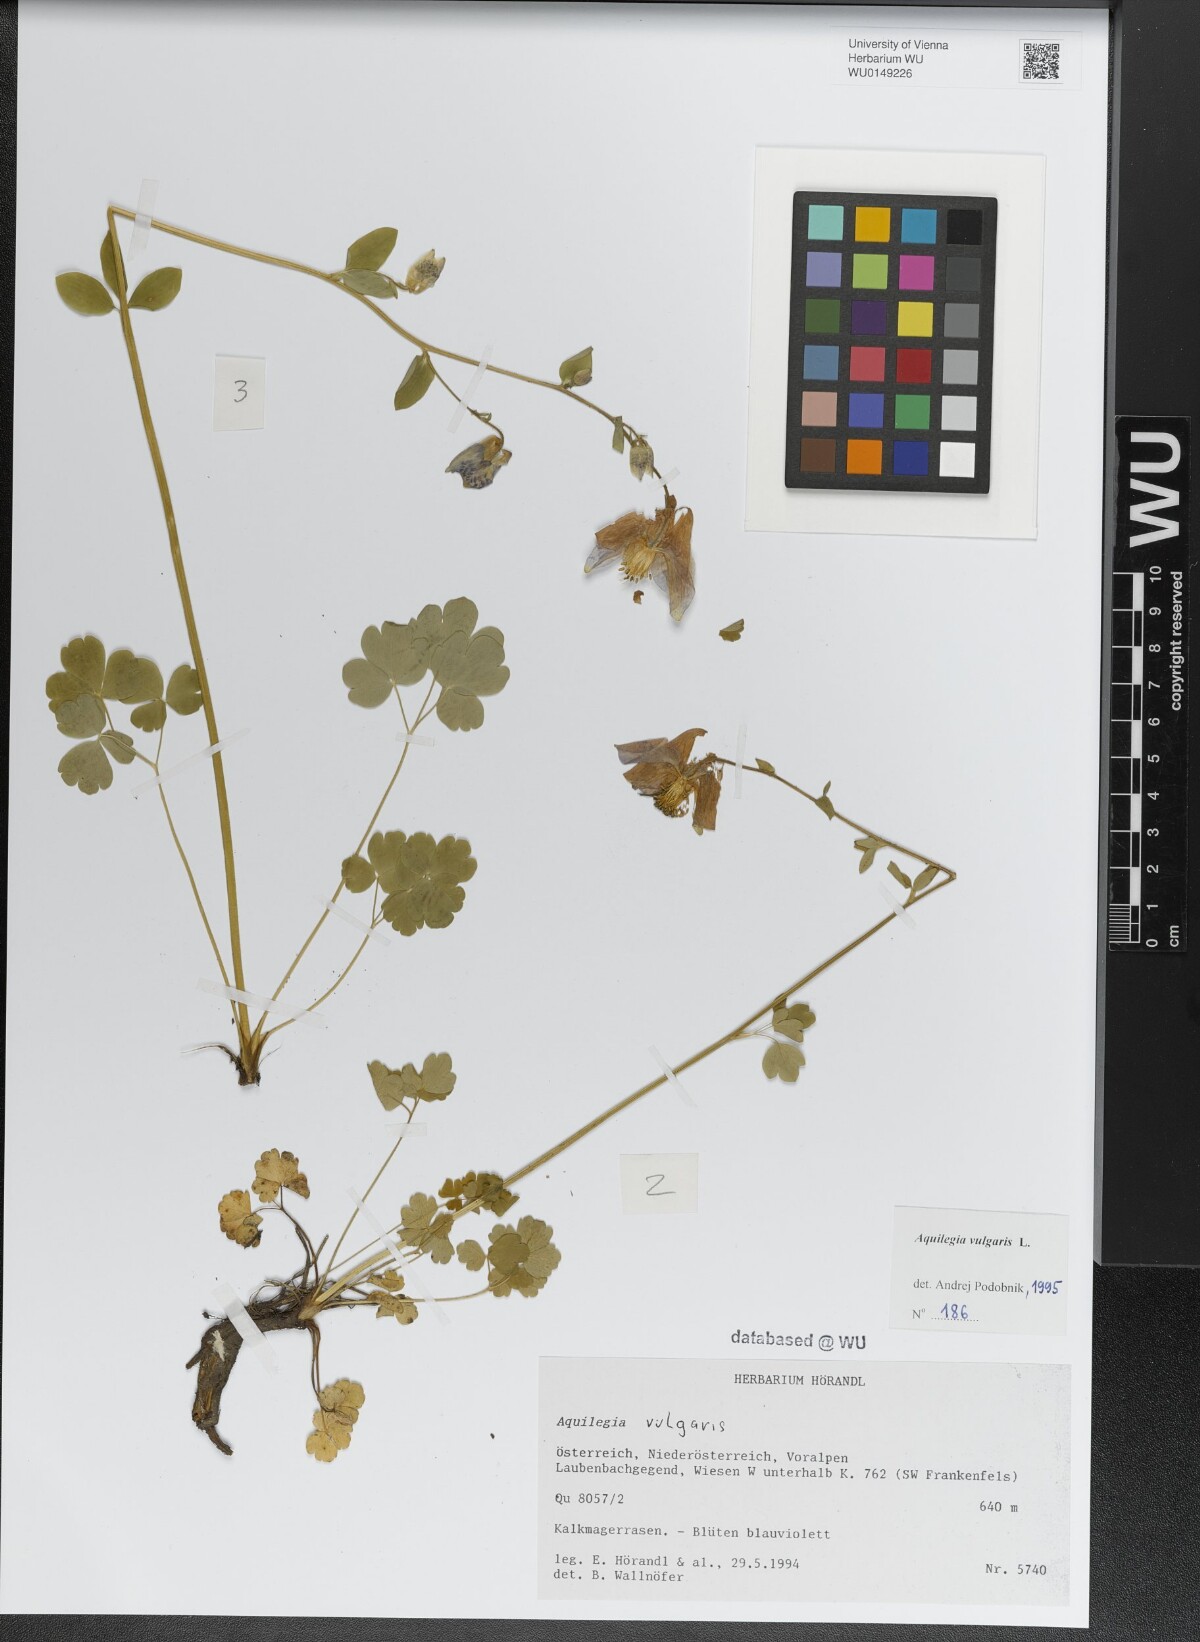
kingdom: Plantae
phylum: Tracheophyta
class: Magnoliopsida
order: Ranunculales
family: Ranunculaceae
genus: Aquilegia
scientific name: Aquilegia vulgaris
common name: Columbine
